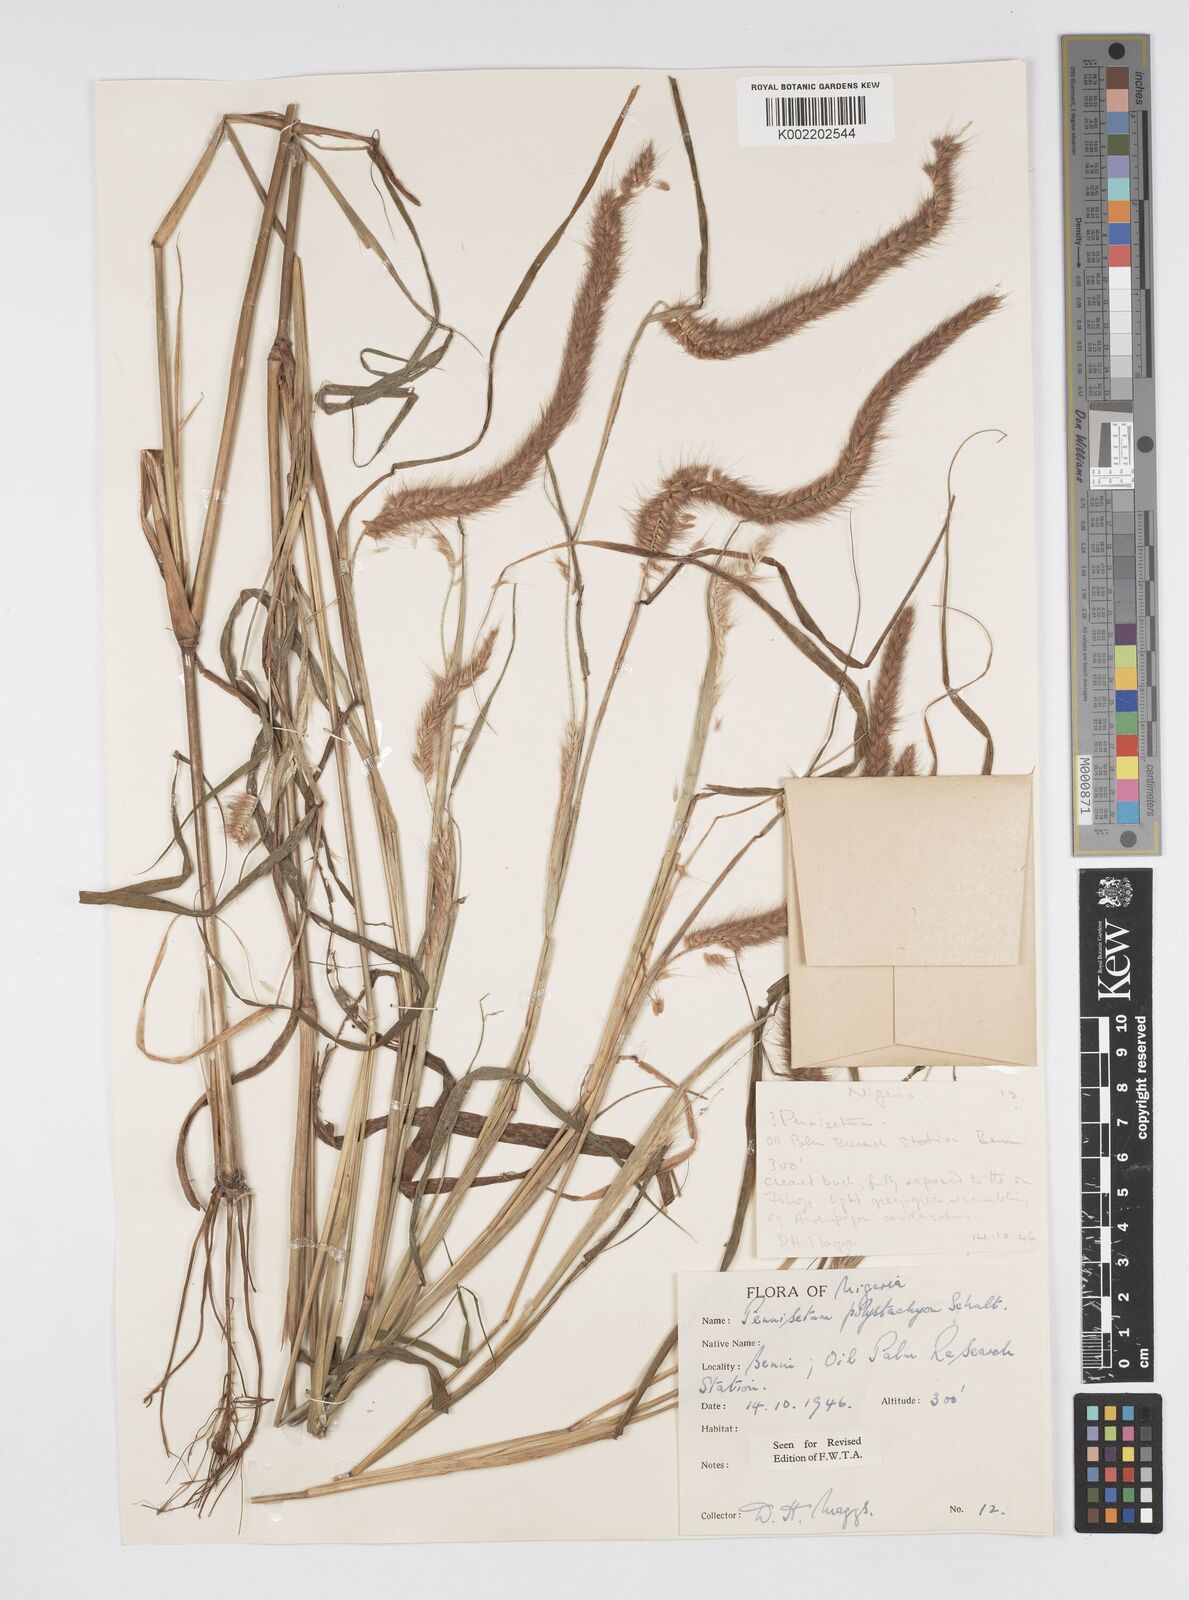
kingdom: Plantae
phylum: Tracheophyta
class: Liliopsida
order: Poales
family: Poaceae
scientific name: Poaceae
